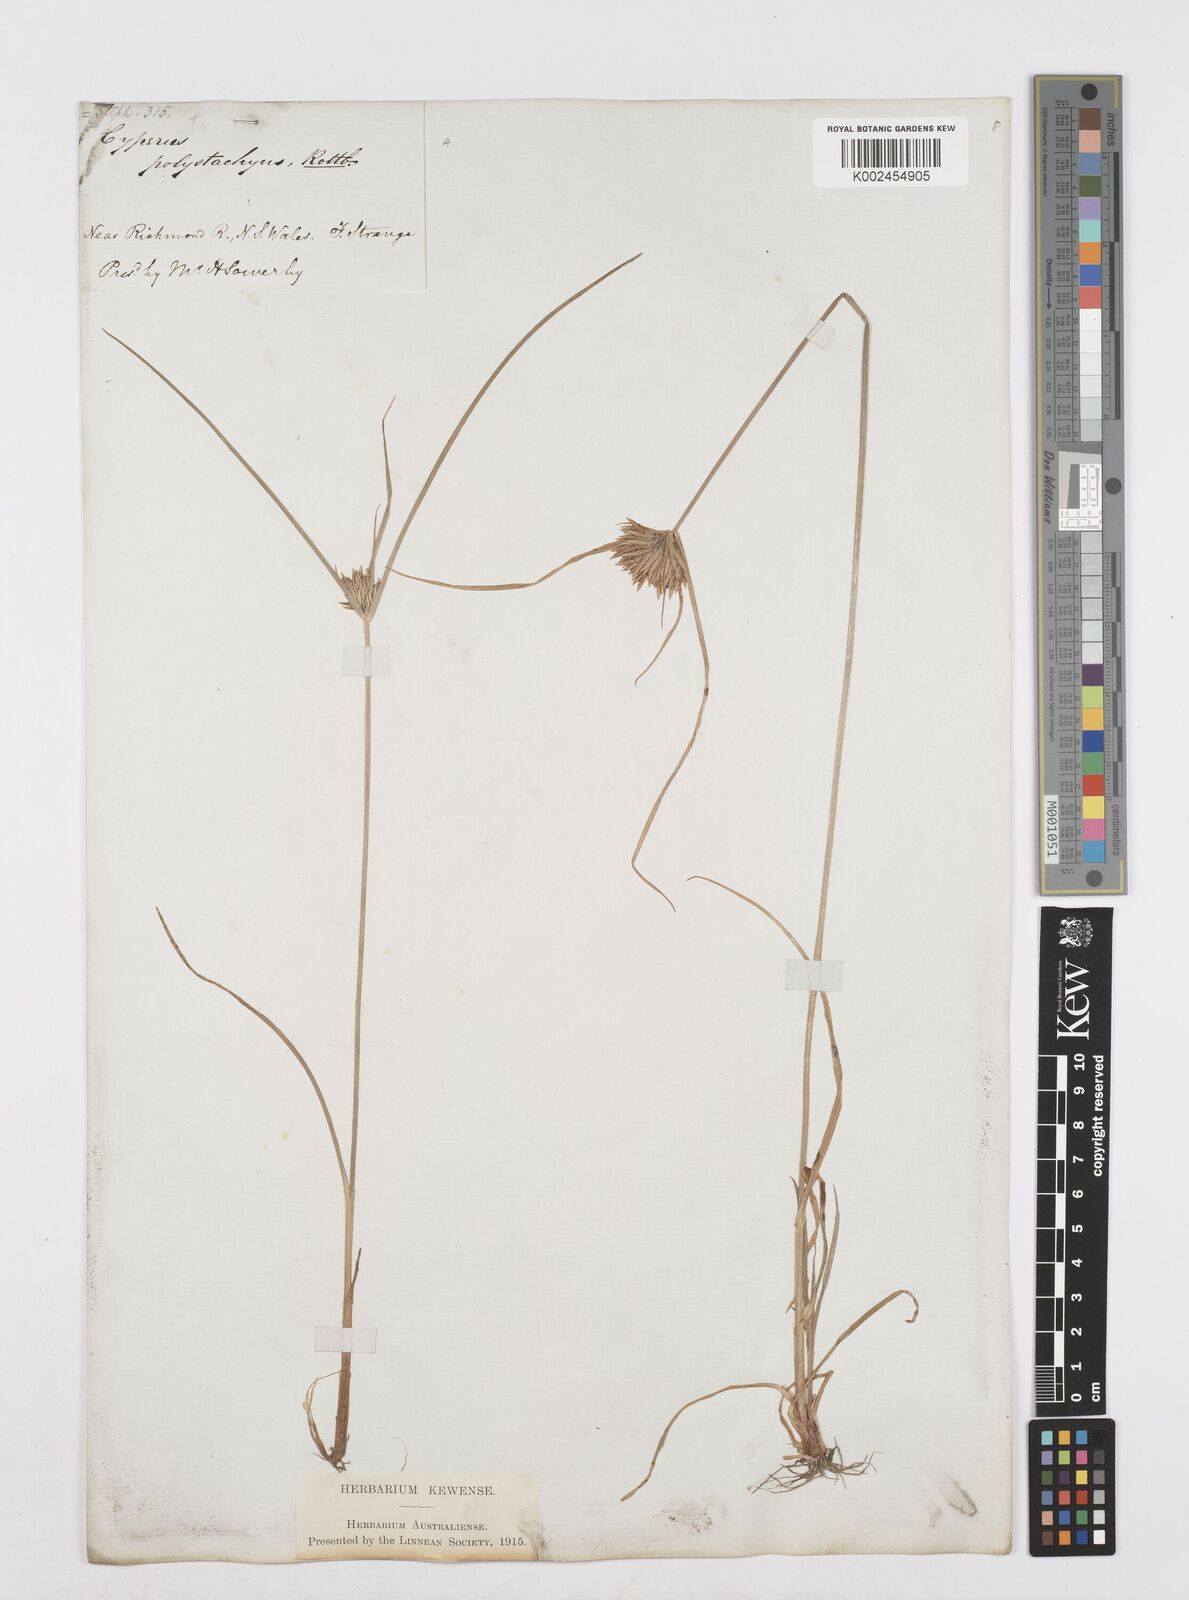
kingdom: Plantae
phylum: Tracheophyta
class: Liliopsida
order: Poales
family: Cyperaceae
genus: Cyperus
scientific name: Cyperus polystachyos
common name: Bunchy flat sedge
